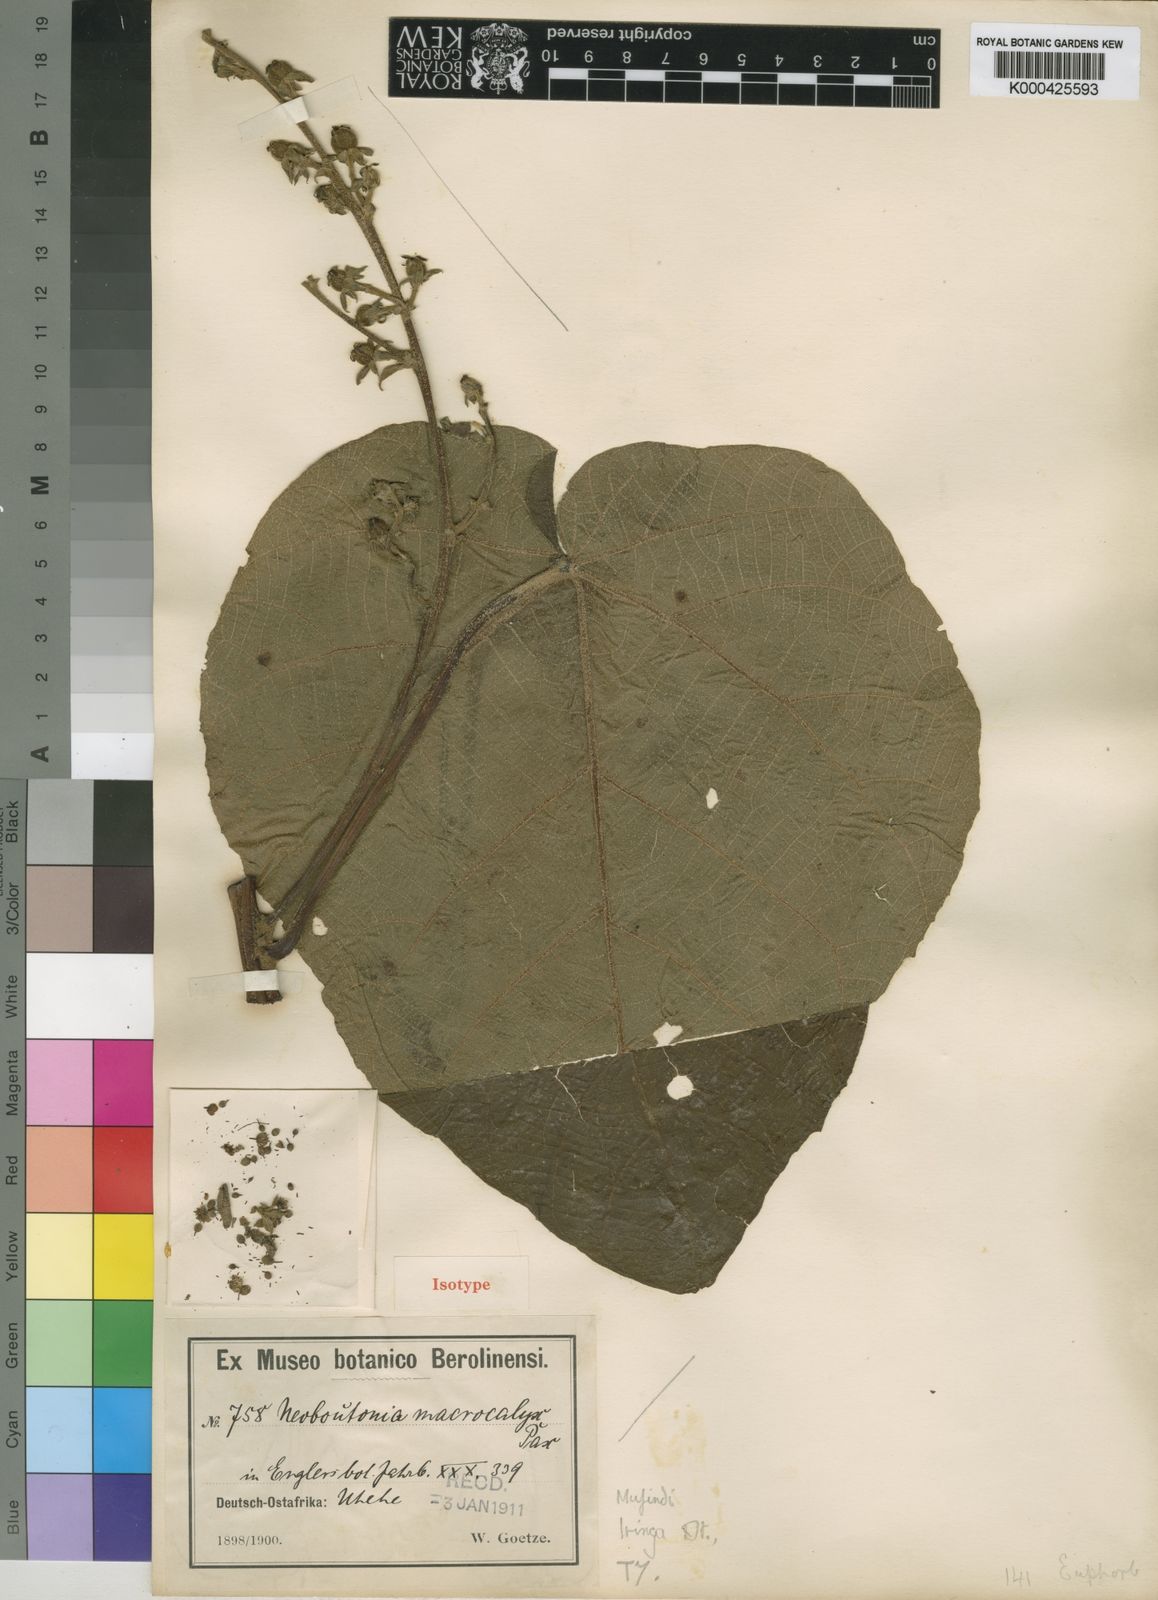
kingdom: Plantae
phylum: Tracheophyta
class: Magnoliopsida
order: Malpighiales
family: Euphorbiaceae
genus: Neoboutonia
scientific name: Neoboutonia macrocalyx
